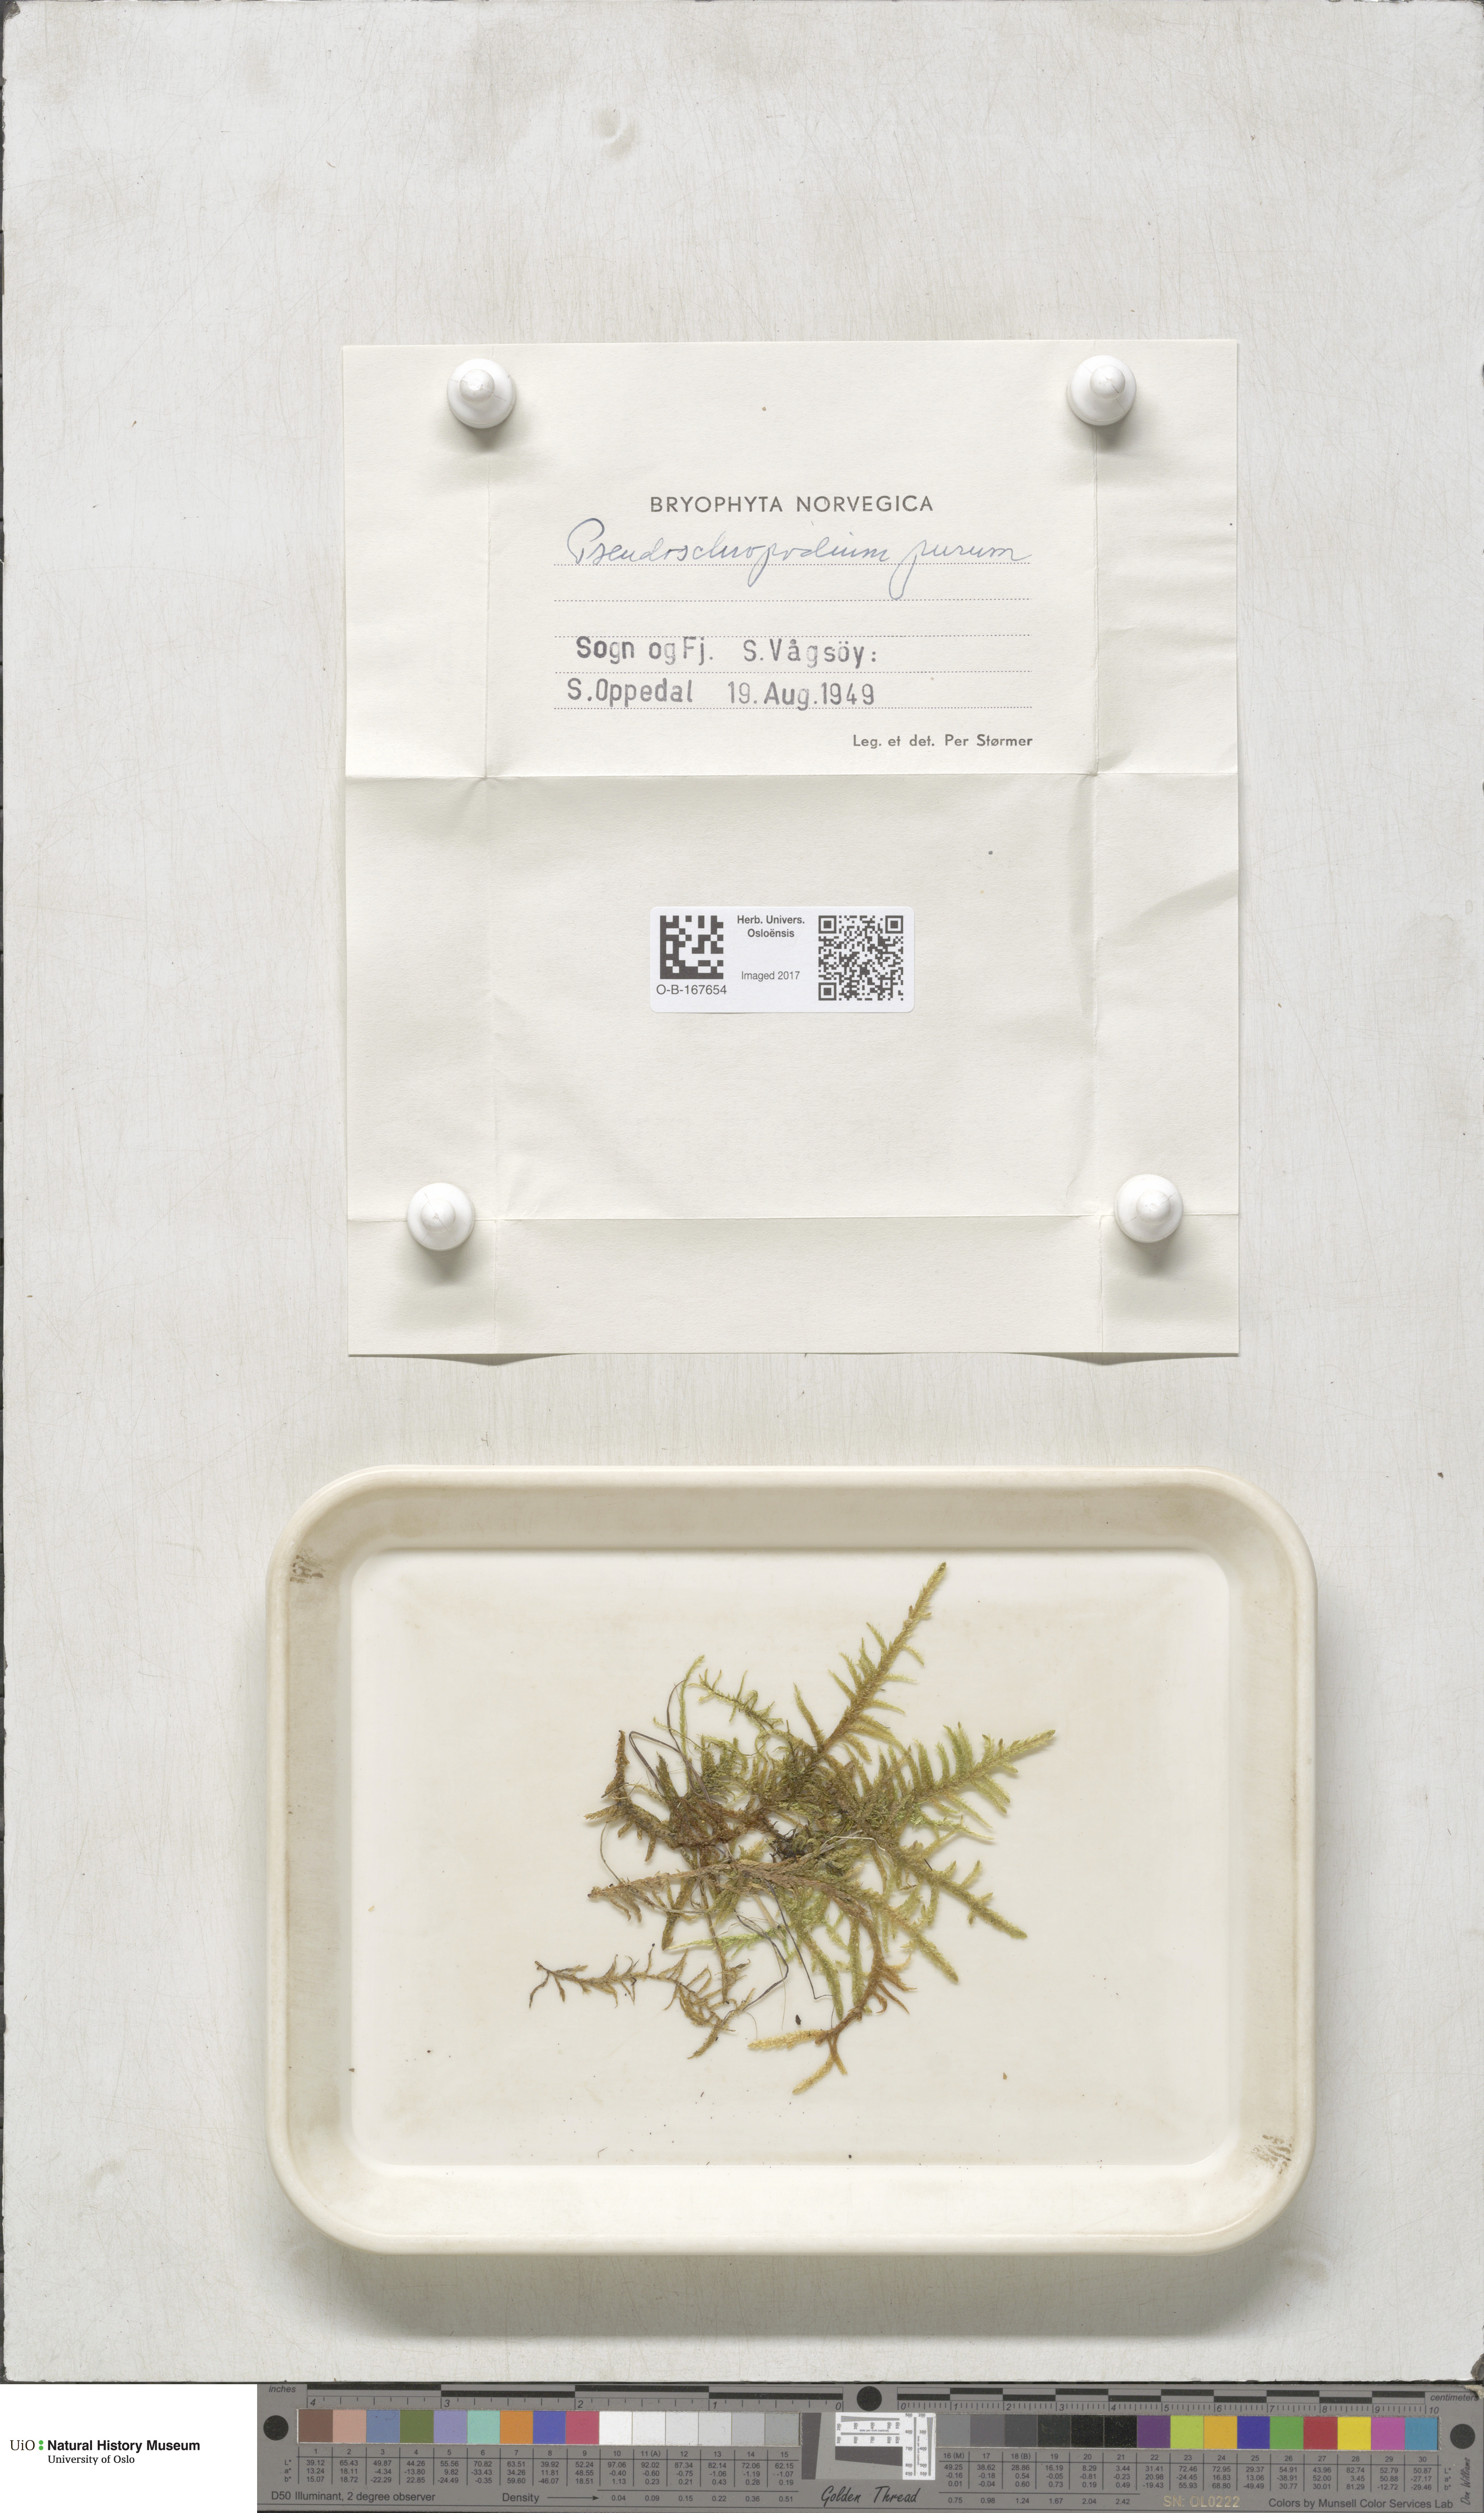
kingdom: Plantae
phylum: Bryophyta
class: Bryopsida
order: Hypnales
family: Brachytheciaceae
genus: Pseudoscleropodium
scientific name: Pseudoscleropodium purum
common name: Neat feather-moss
